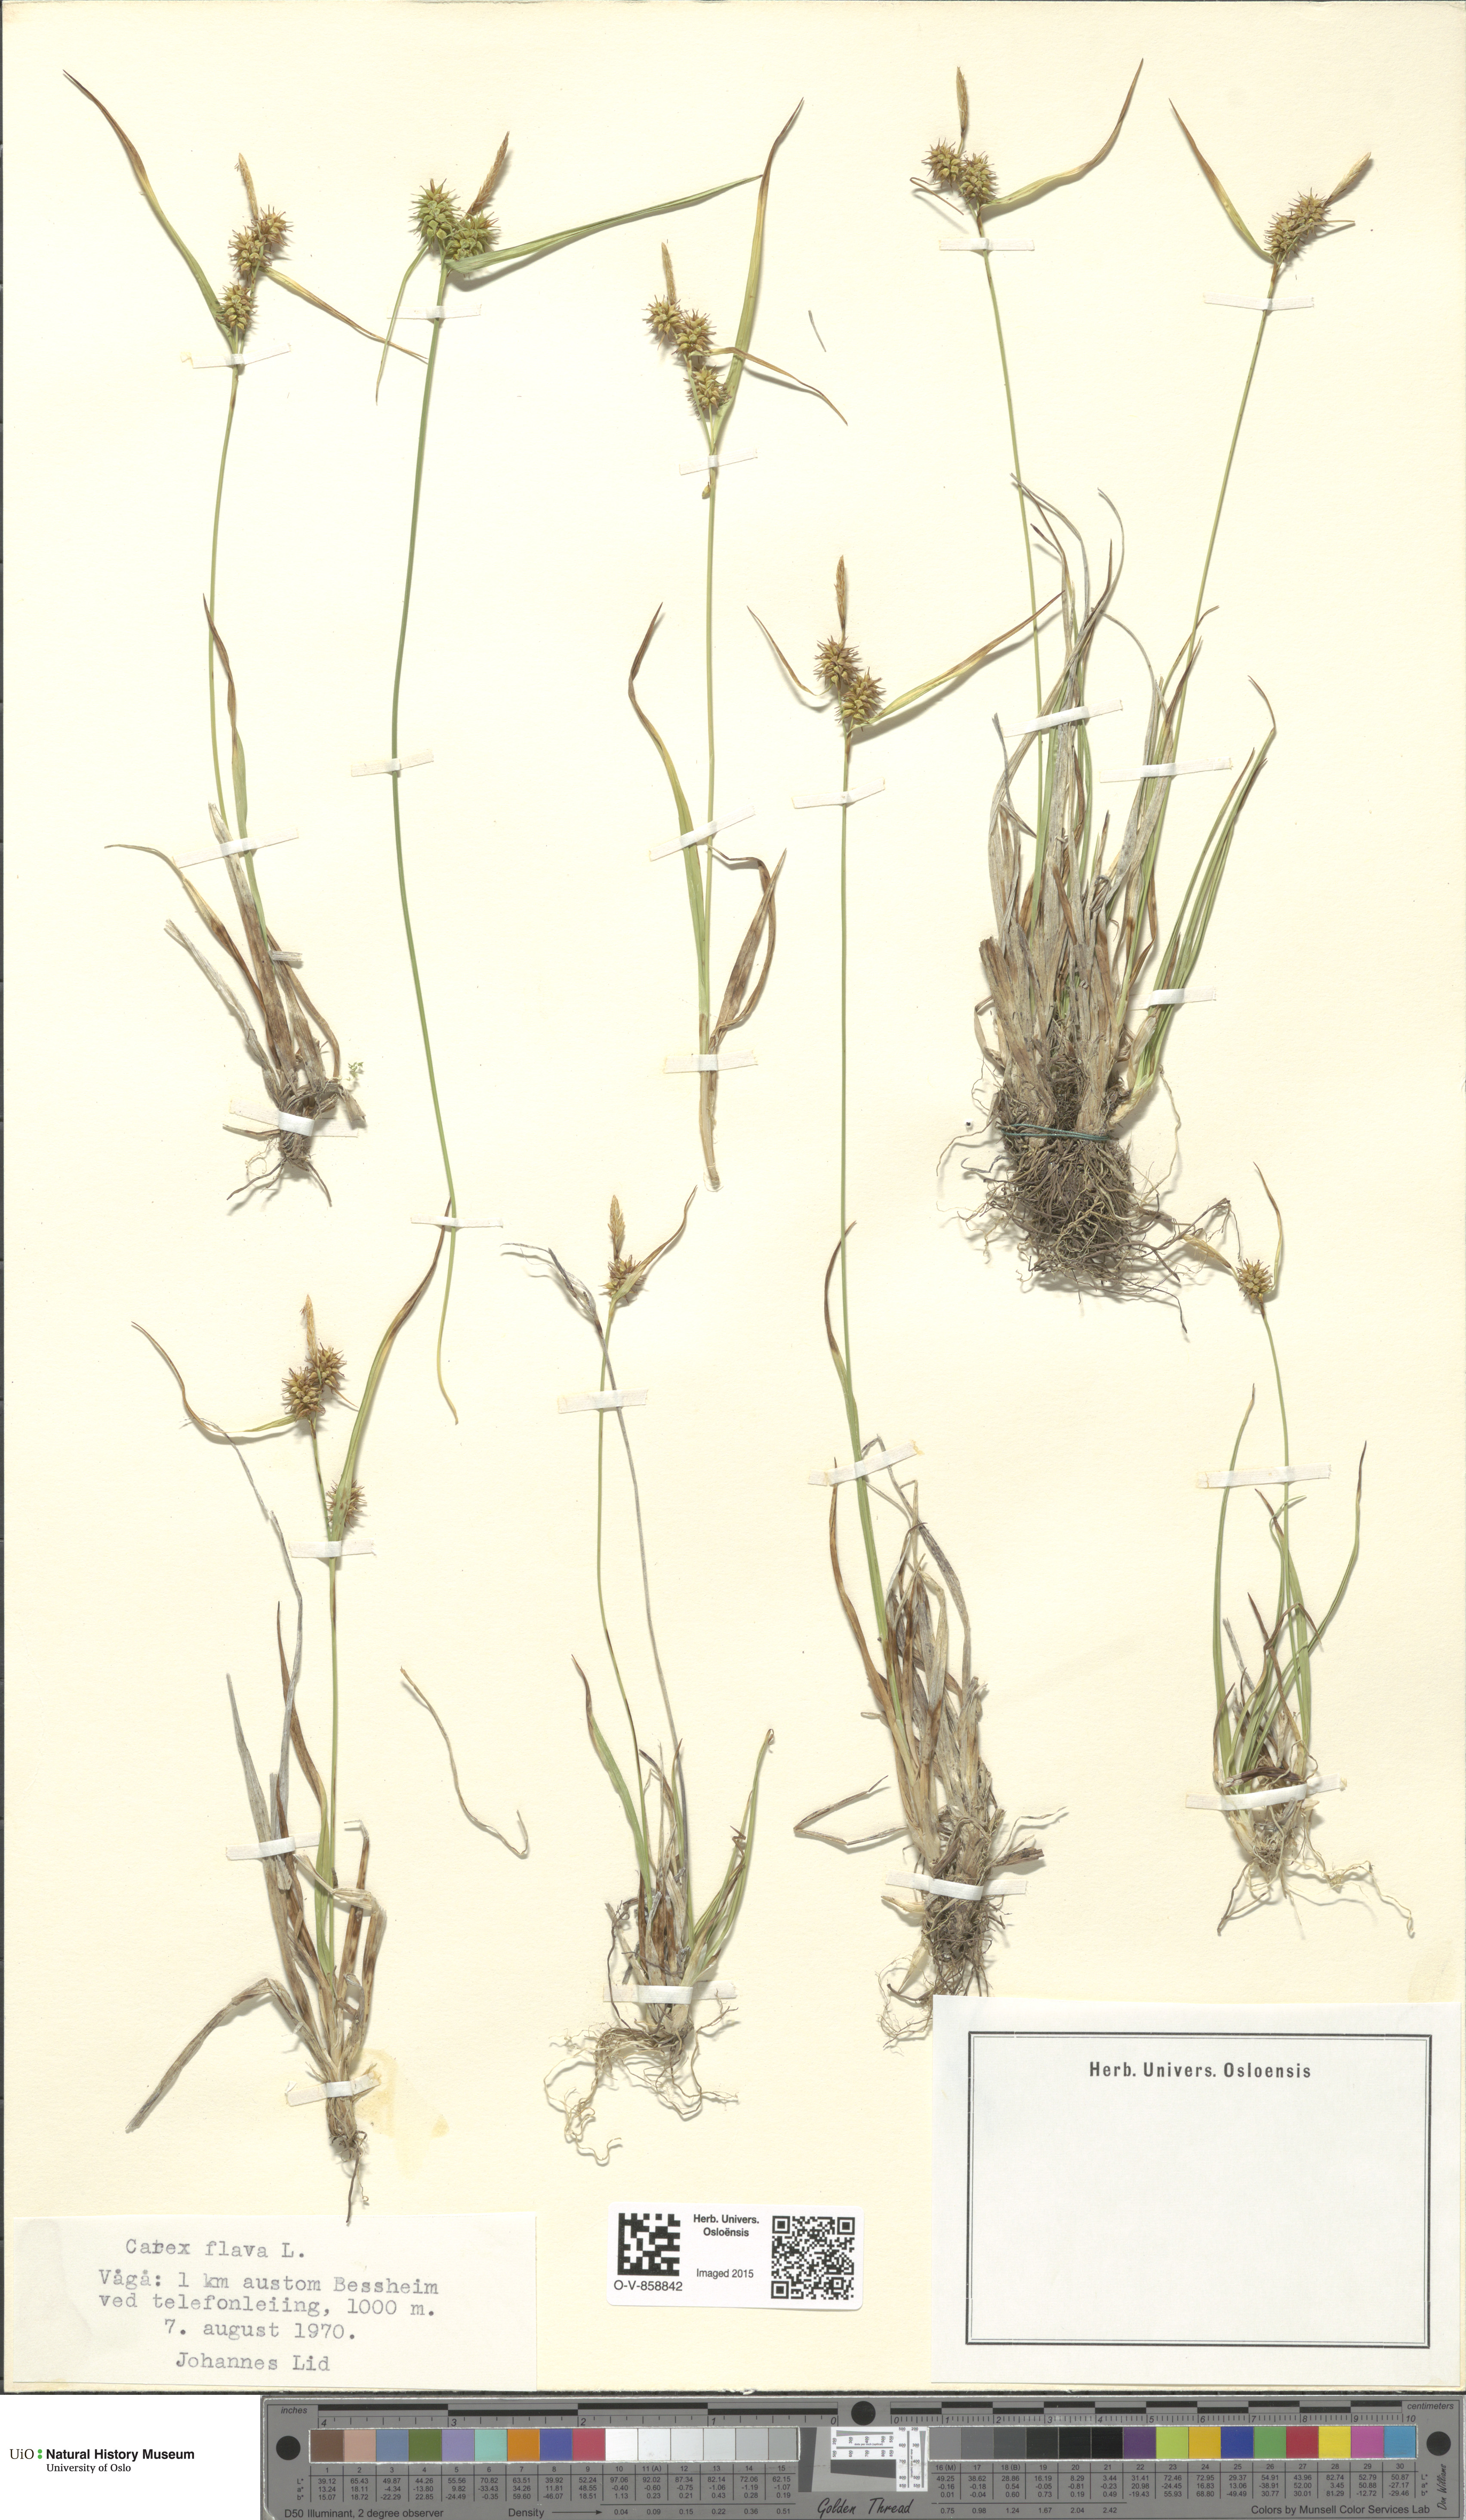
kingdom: Plantae
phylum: Tracheophyta
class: Liliopsida
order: Poales
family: Cyperaceae
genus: Carex
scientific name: Carex flava
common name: Large yellow-sedge
